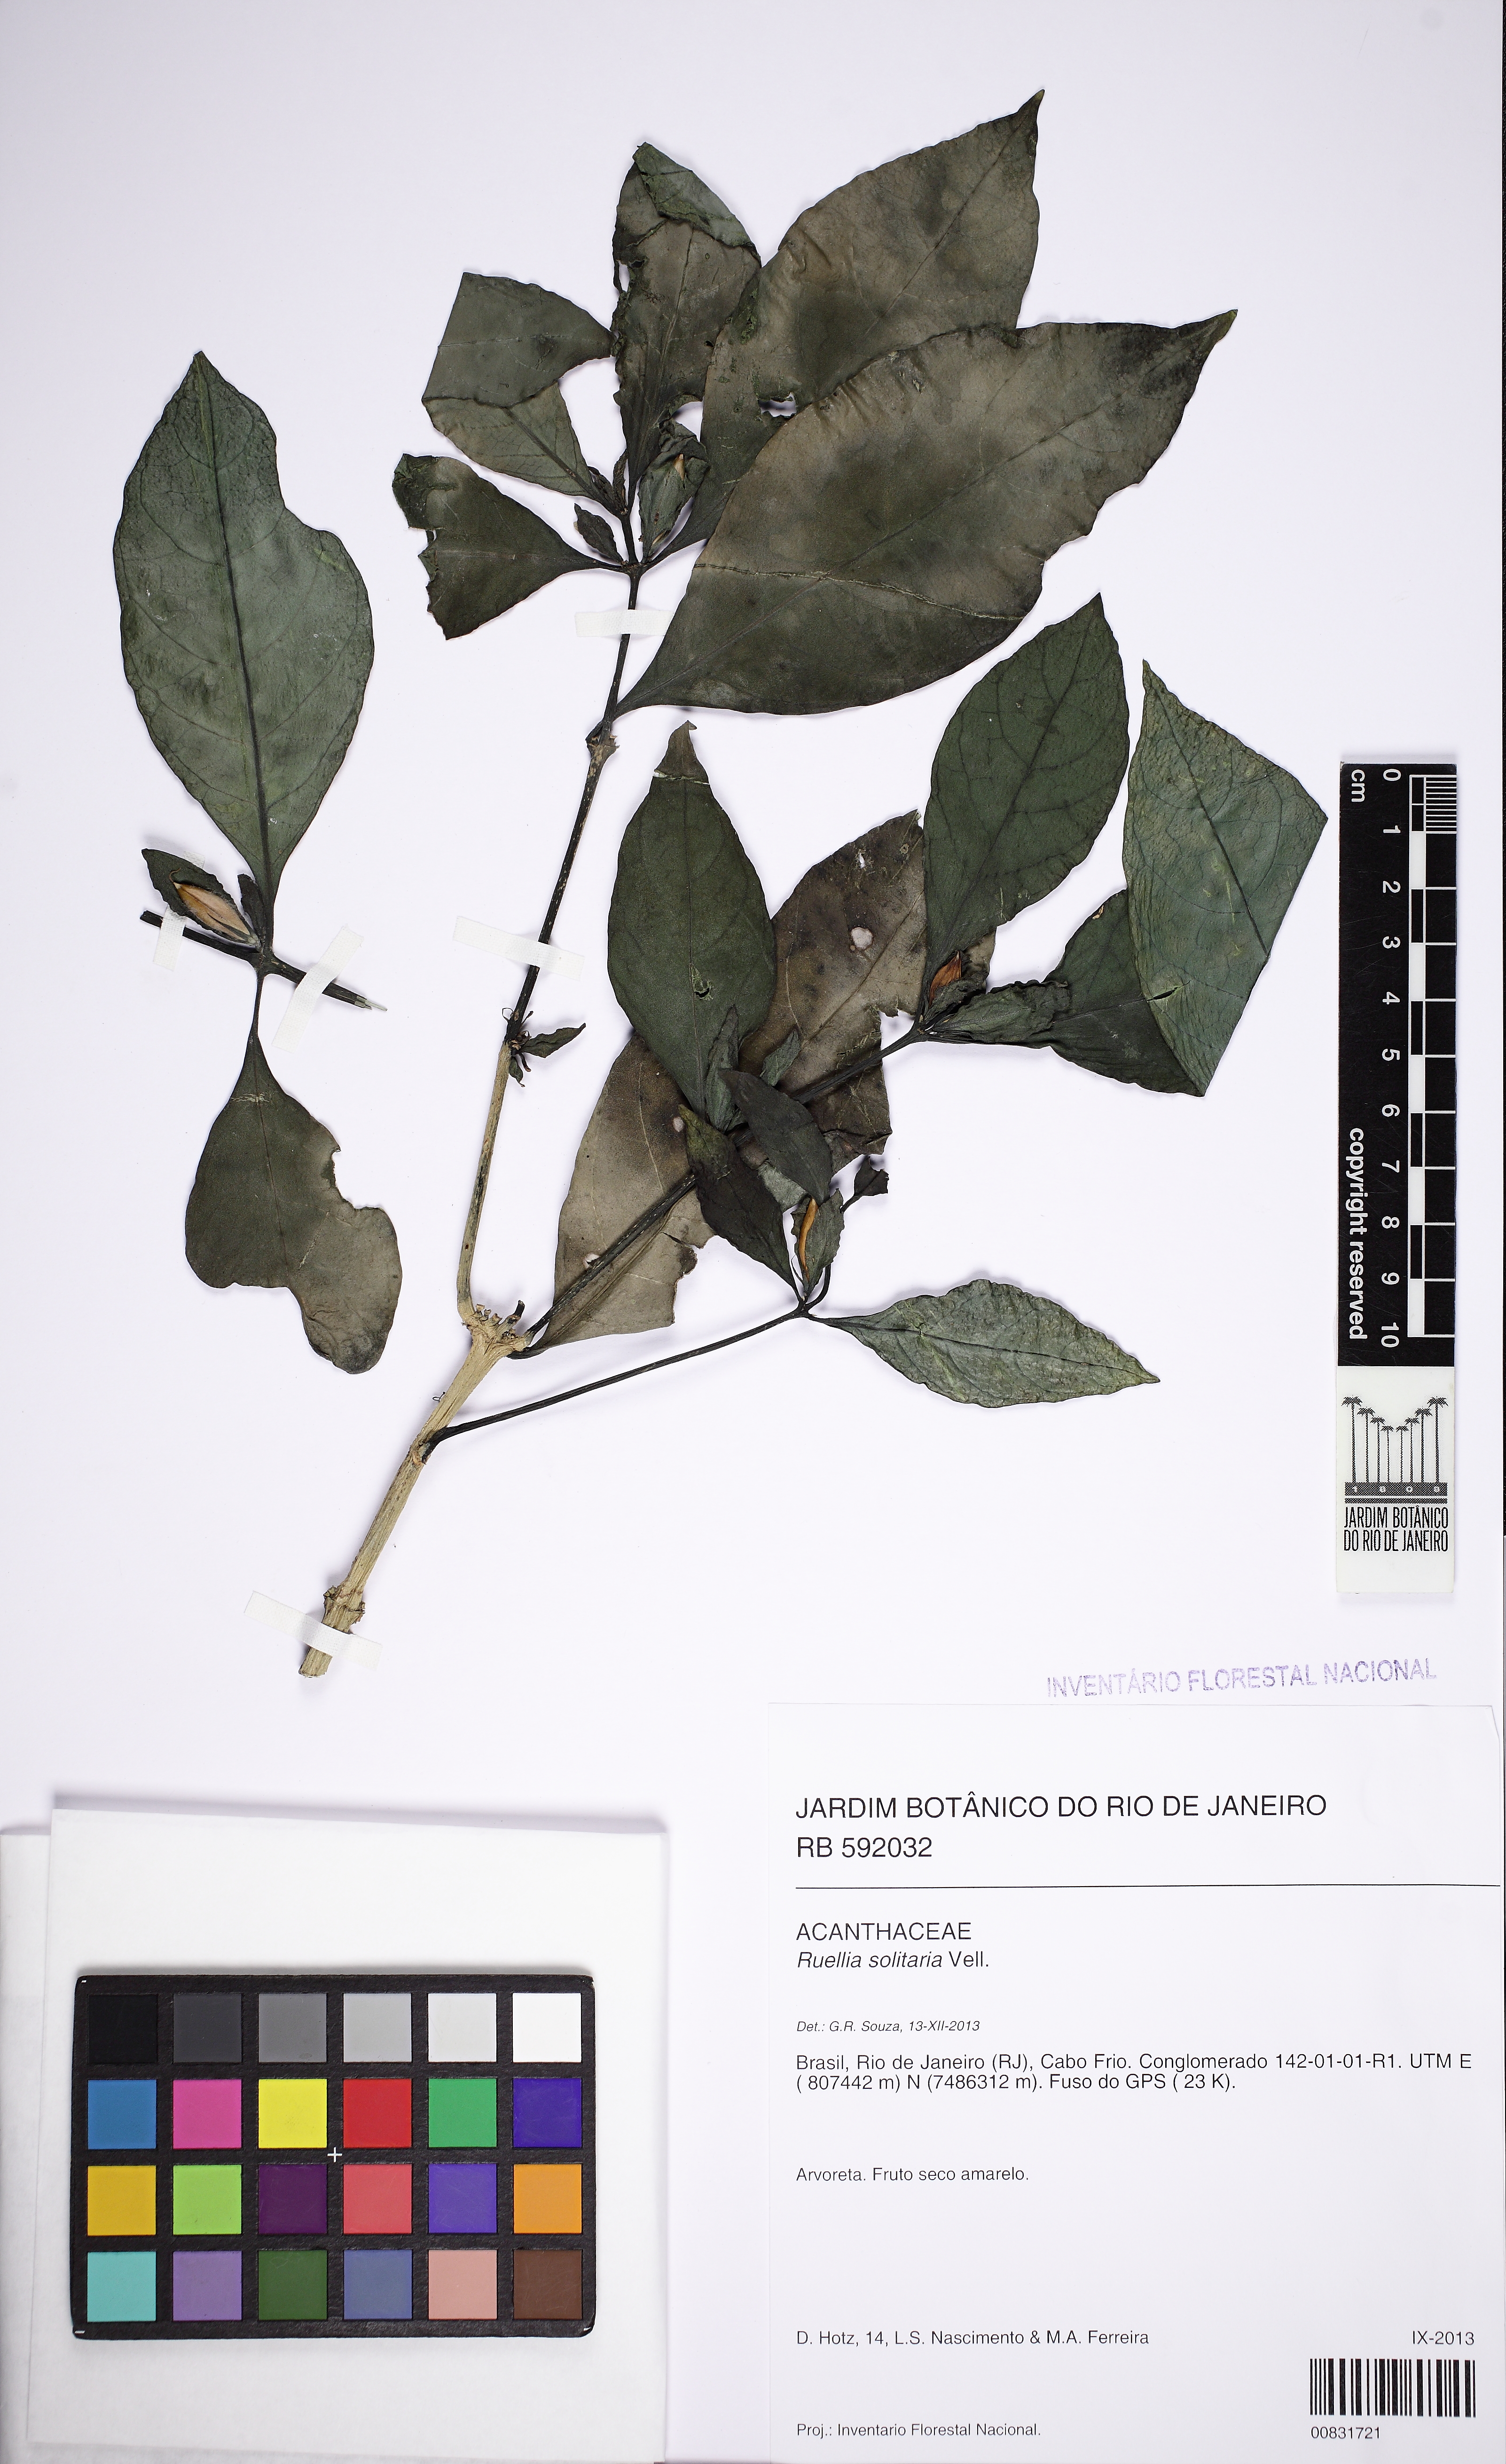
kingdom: Plantae
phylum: Tracheophyta
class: Magnoliopsida
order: Lamiales
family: Acanthaceae
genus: Ruellia
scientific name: Ruellia solitaria
